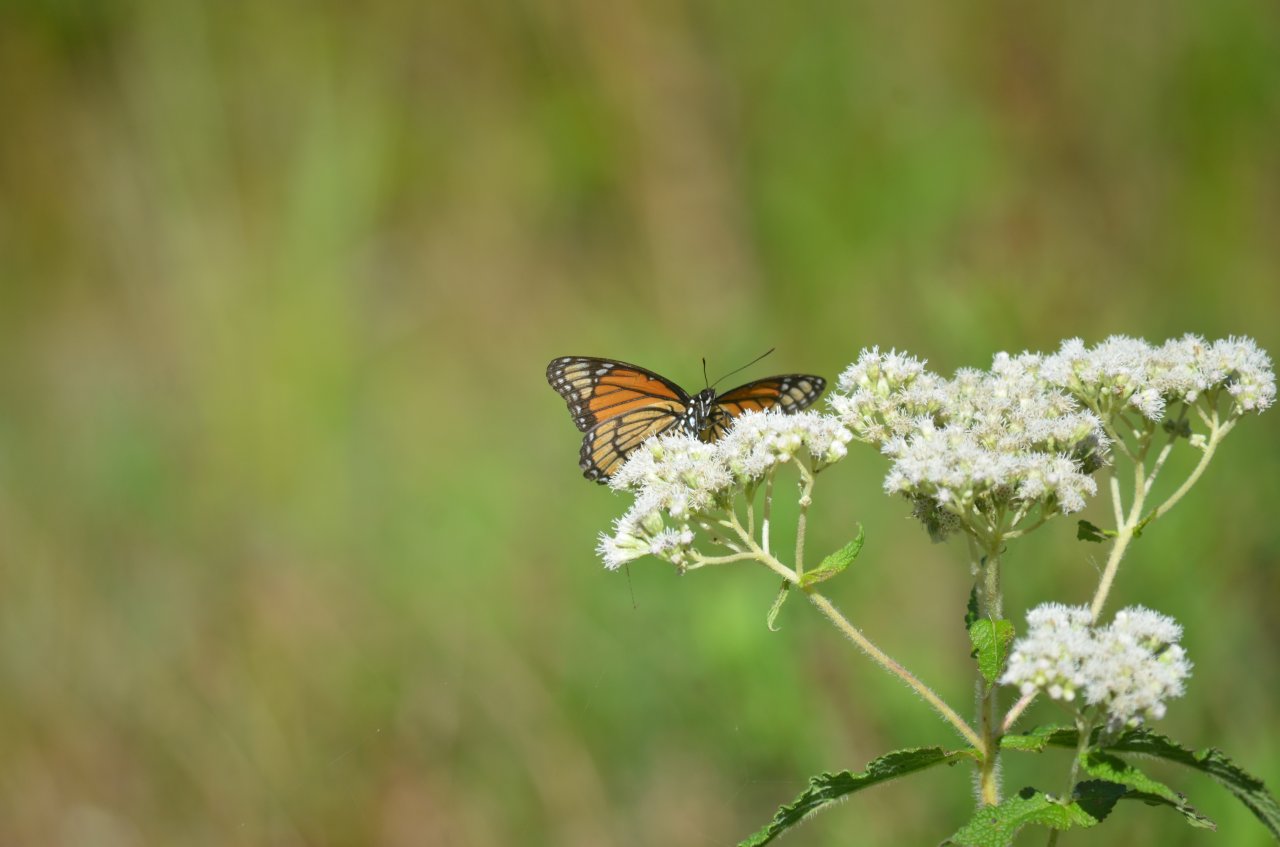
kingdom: Animalia
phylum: Arthropoda
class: Insecta
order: Lepidoptera
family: Nymphalidae
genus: Limenitis
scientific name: Limenitis archippus
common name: Viceroy
